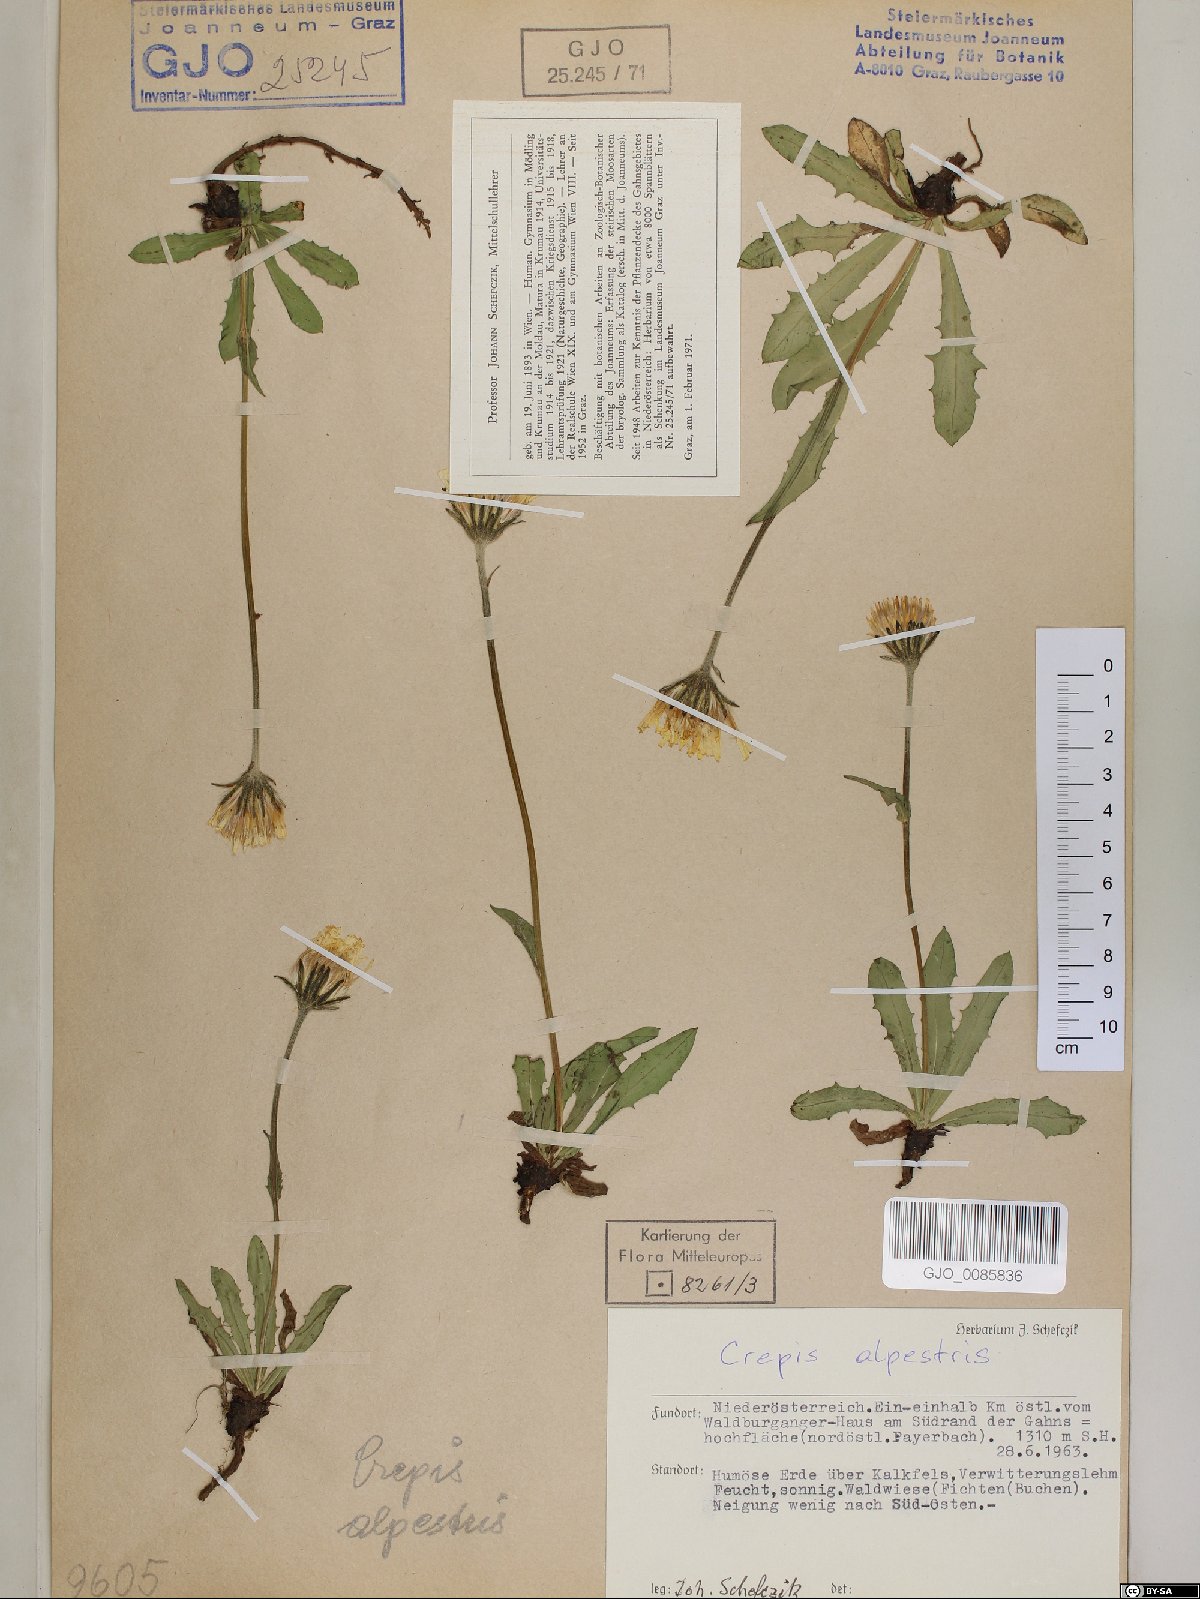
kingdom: Plantae
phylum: Tracheophyta
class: Magnoliopsida
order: Asterales
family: Asteraceae
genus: Crepis
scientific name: Crepis alpestris
